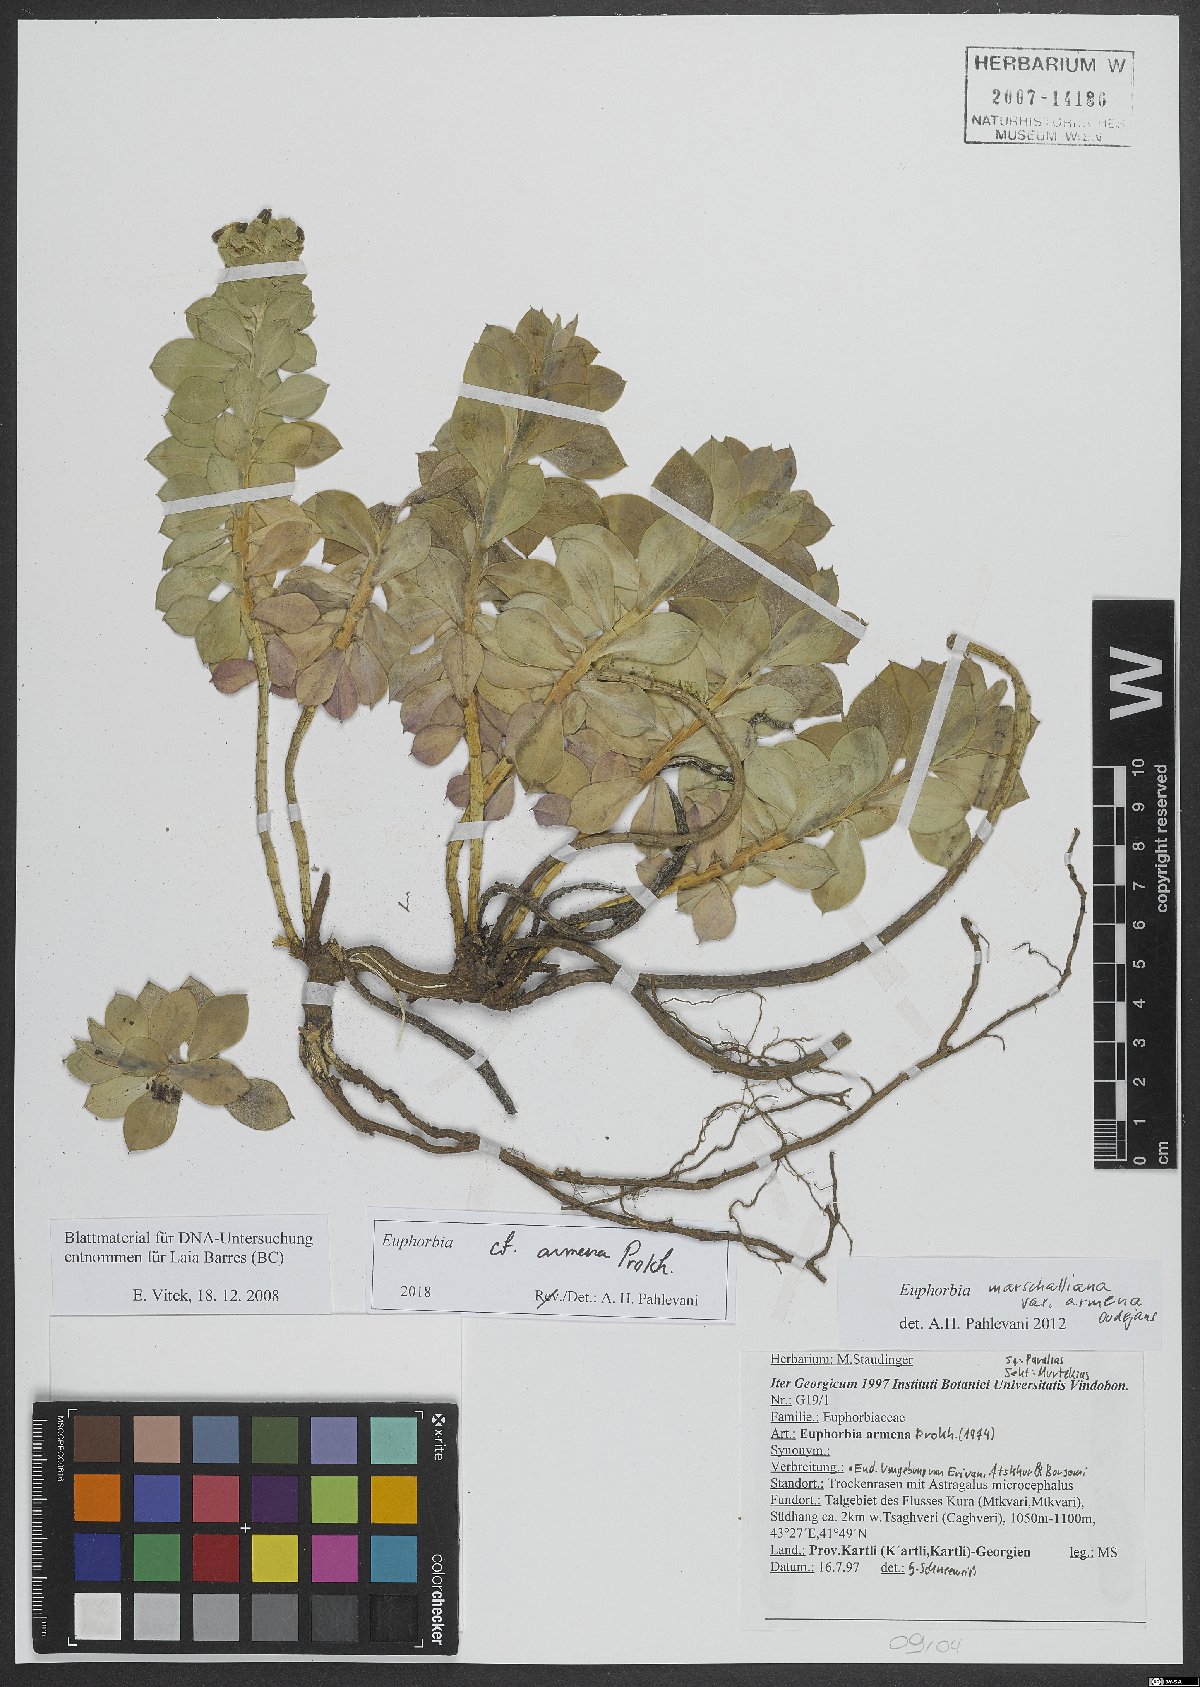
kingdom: Plantae
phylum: Tracheophyta
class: Magnoliopsida
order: Malpighiales
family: Euphorbiaceae
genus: Euphorbia
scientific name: Euphorbia marschalliana
